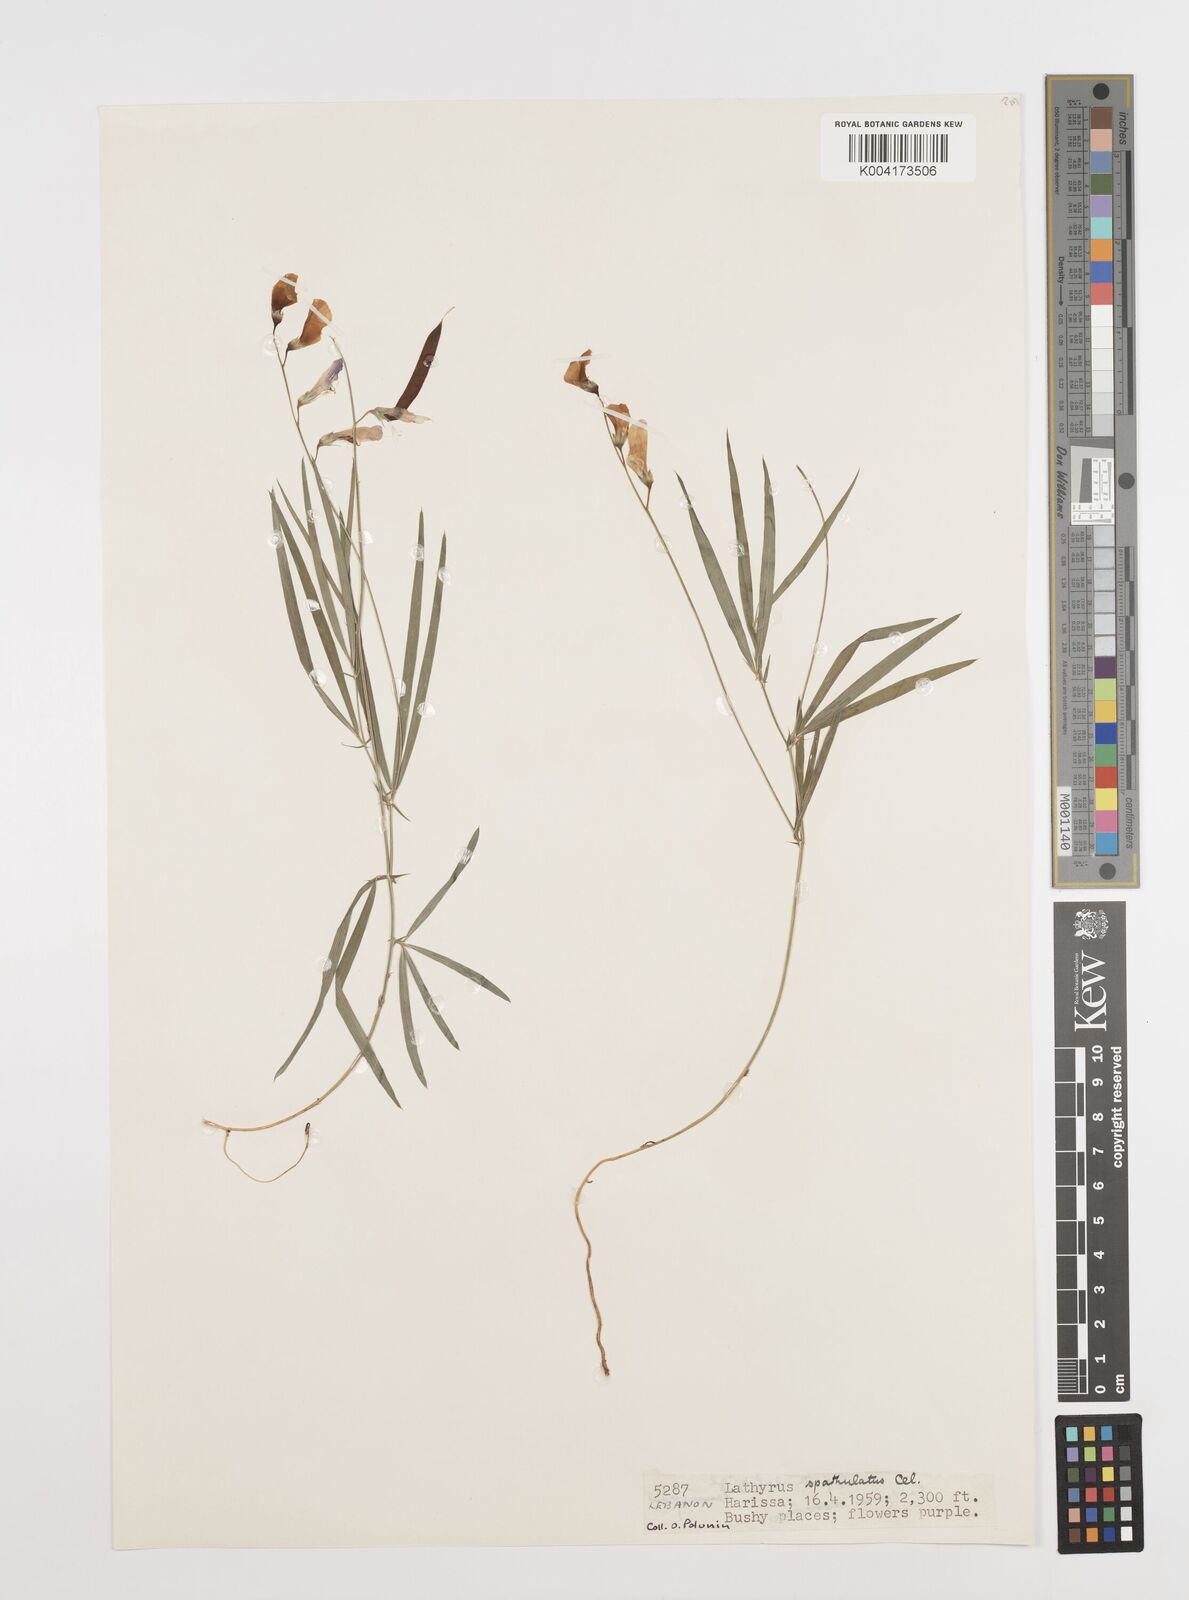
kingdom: Plantae
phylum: Tracheophyta
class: Magnoliopsida
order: Fabales
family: Fabaceae
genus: Lathyrus
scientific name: Lathyrus spathulatus
